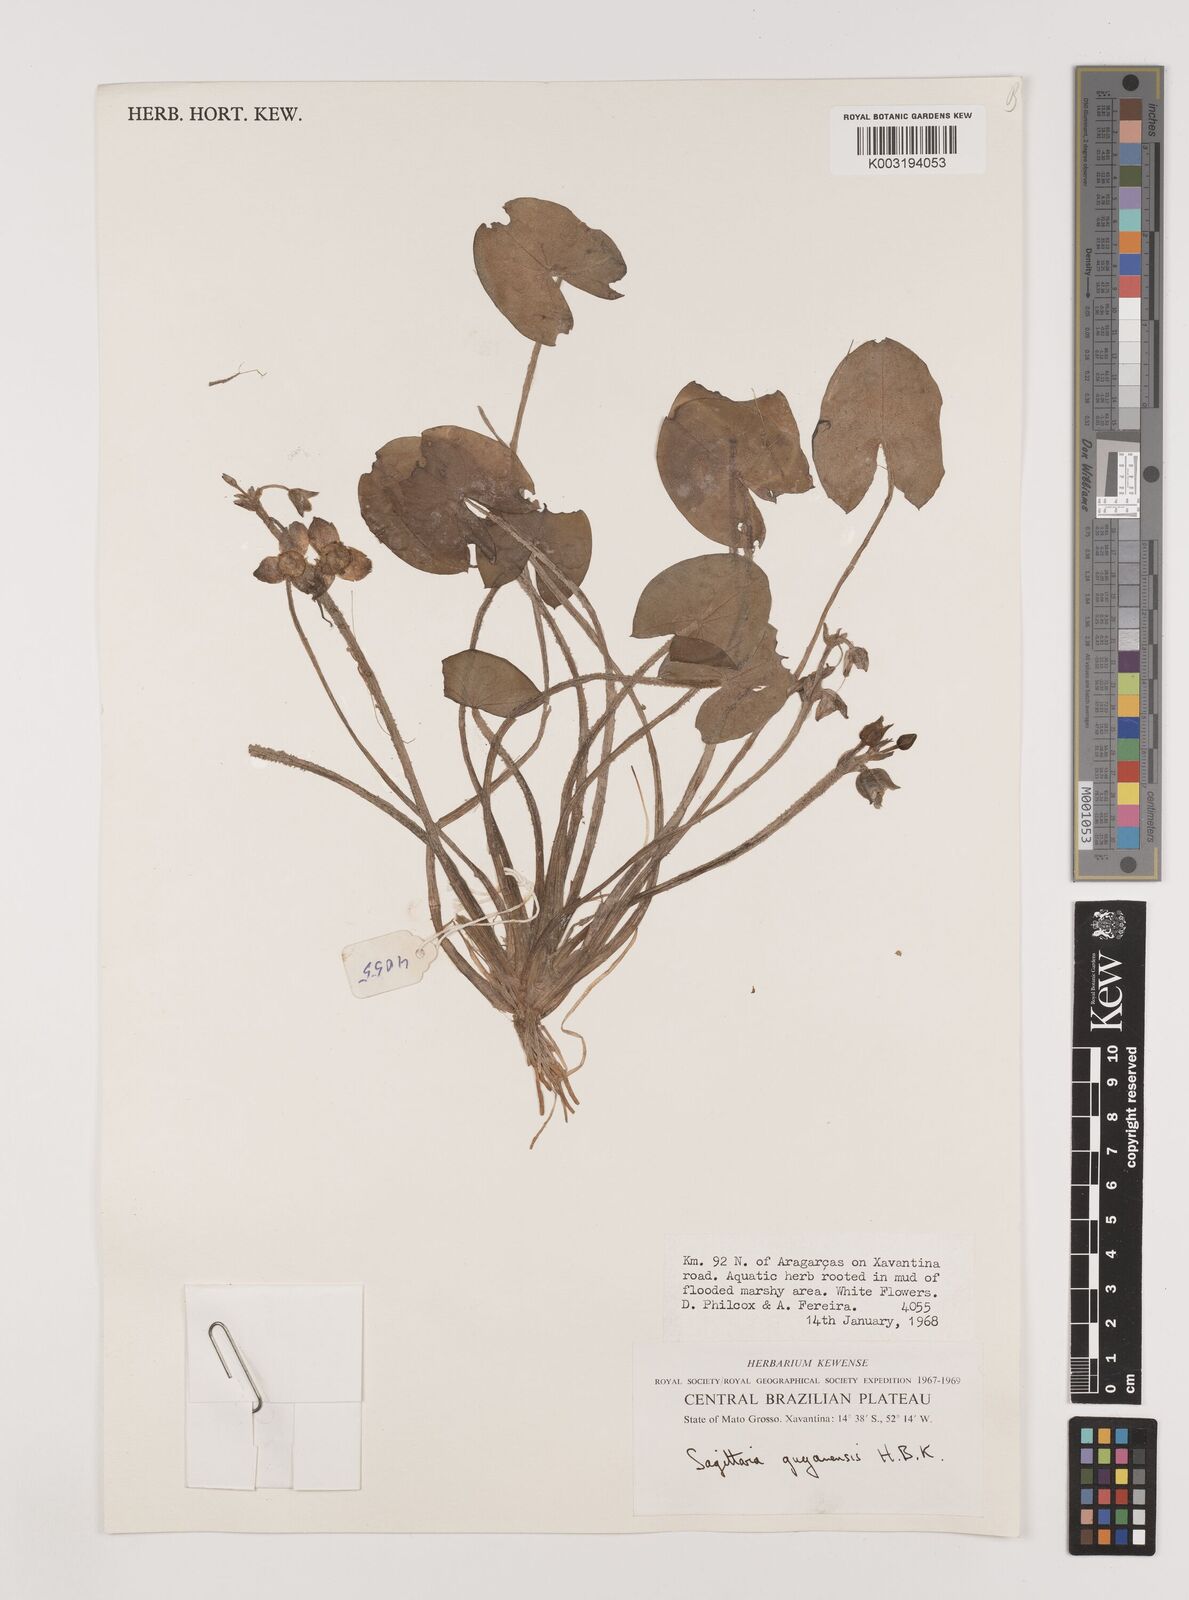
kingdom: Plantae
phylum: Tracheophyta
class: Liliopsida
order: Alismatales
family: Alismataceae
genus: Sagittaria
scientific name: Sagittaria guayanensis
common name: Guyanese arrowhead
